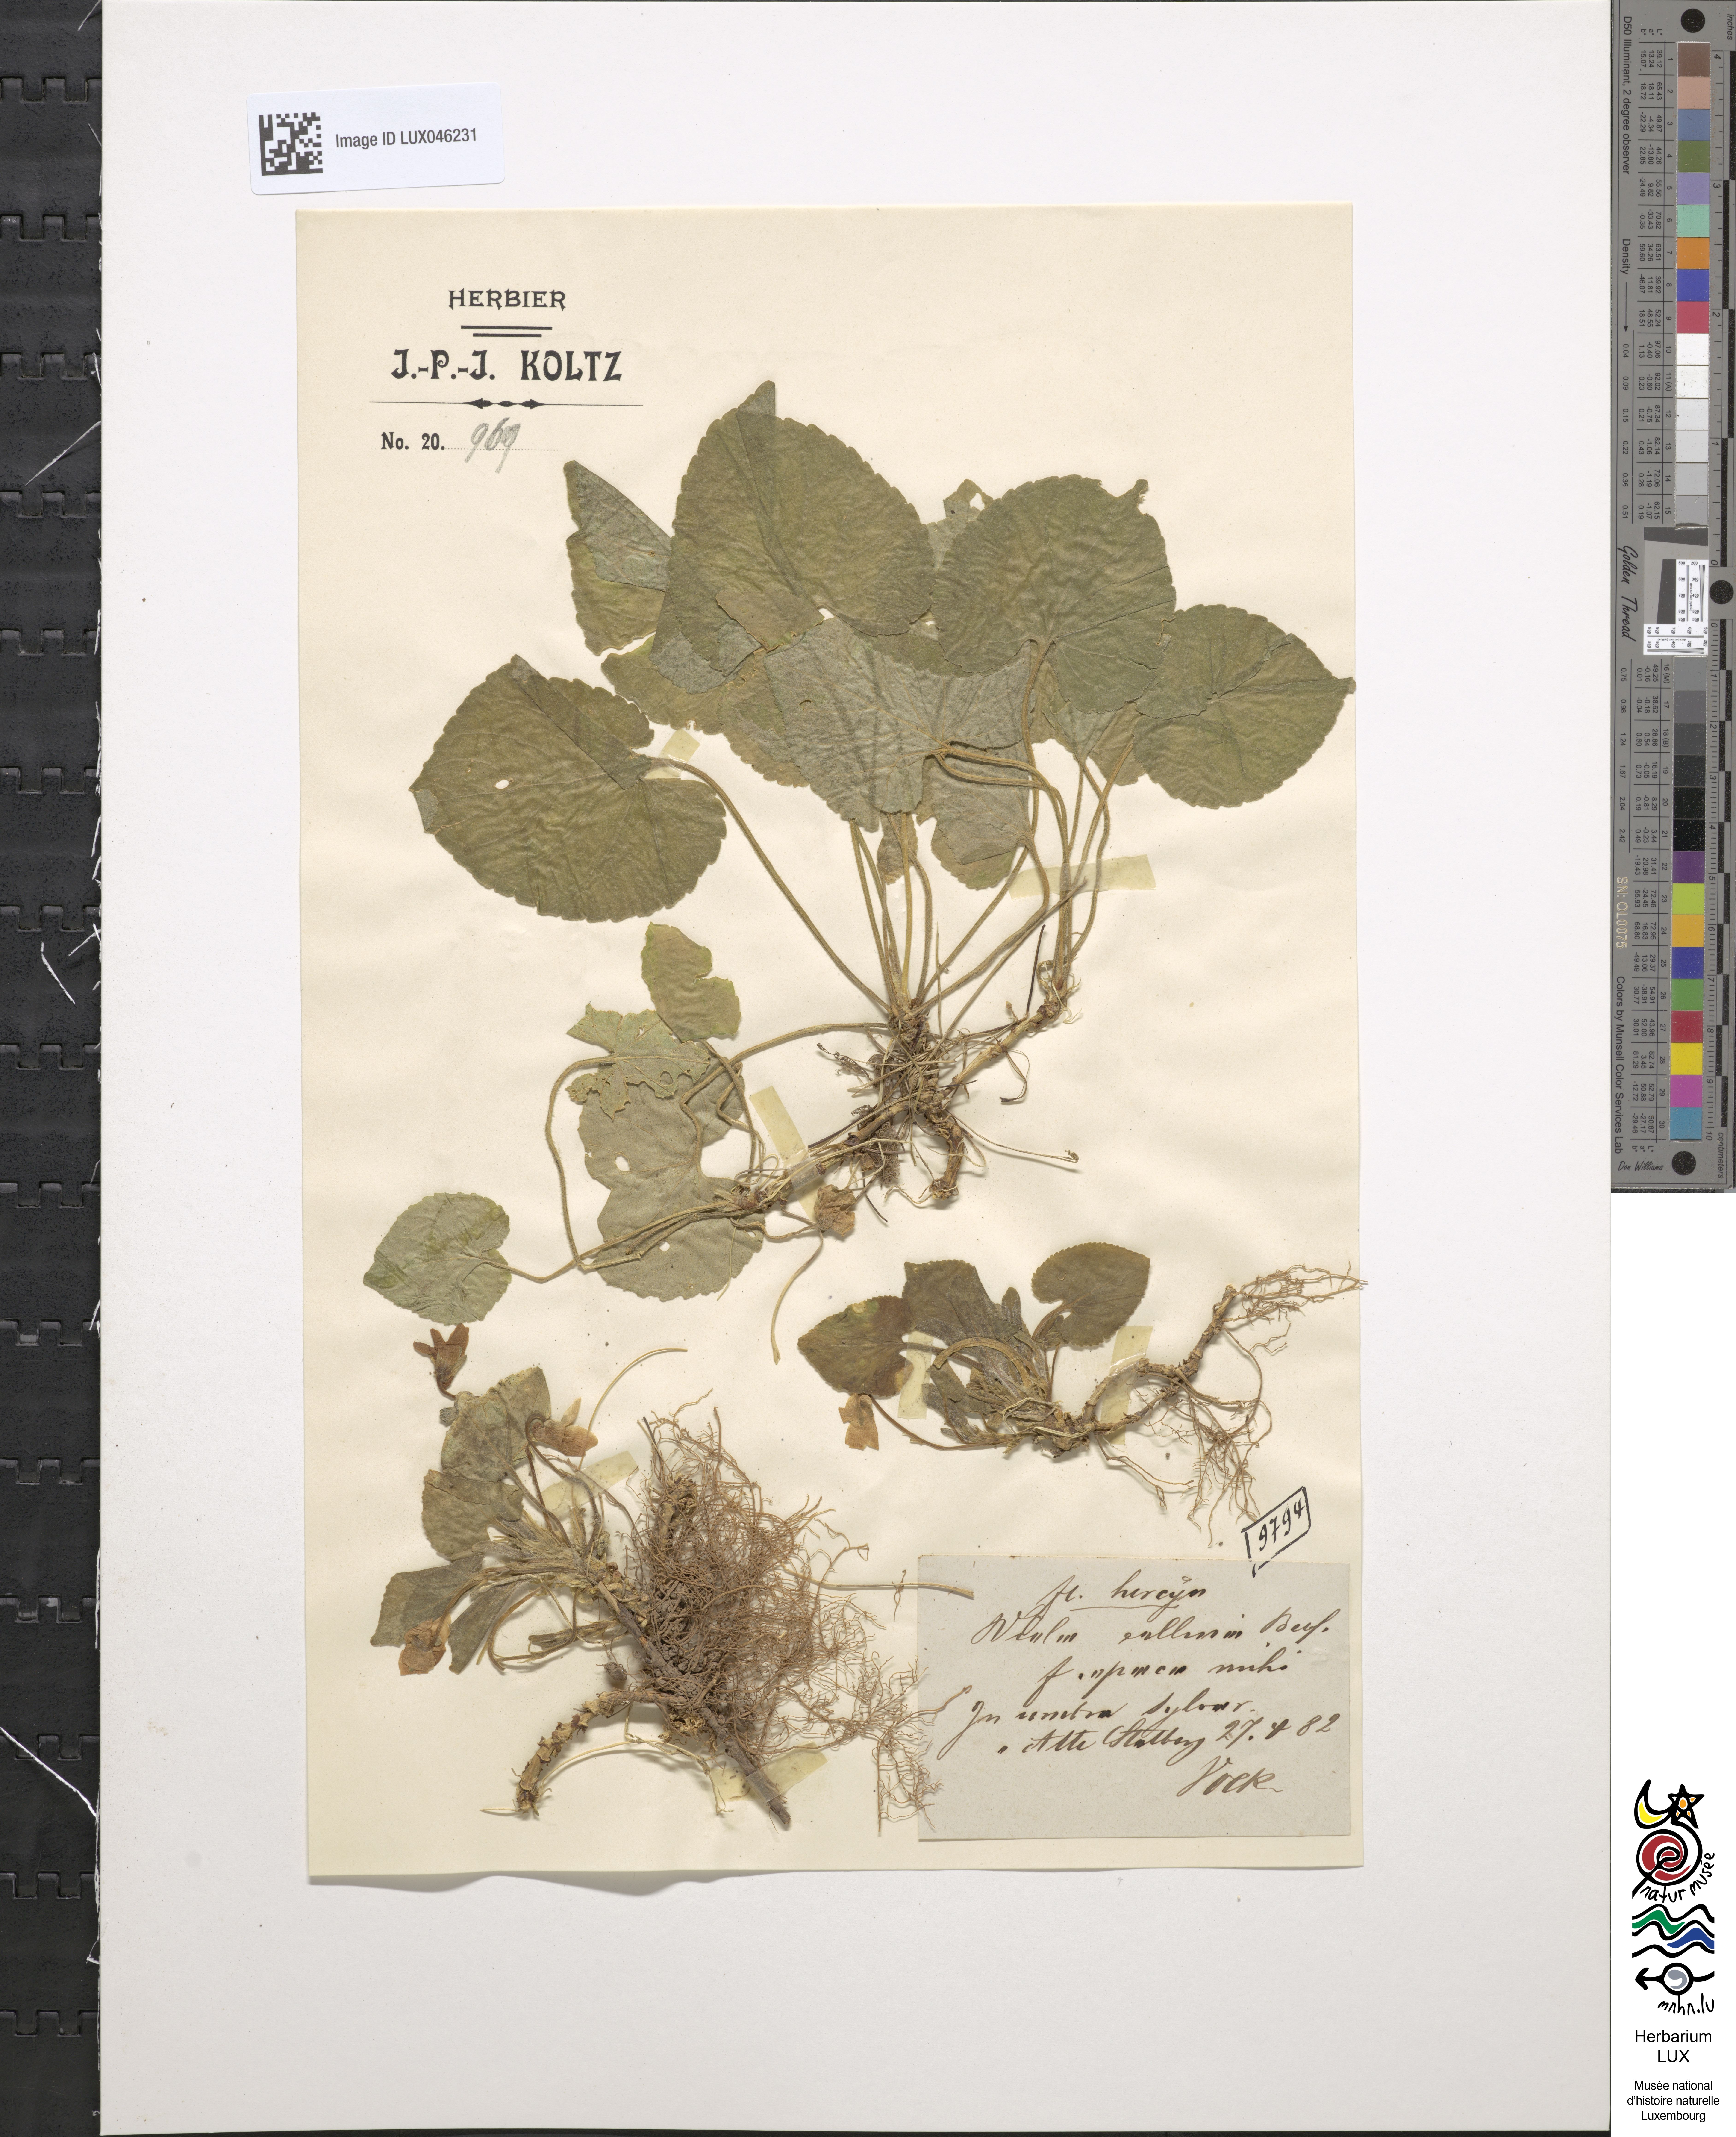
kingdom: Plantae
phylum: Tracheophyta
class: Magnoliopsida
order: Malpighiales
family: Violaceae
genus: Viola
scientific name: Viola collina
